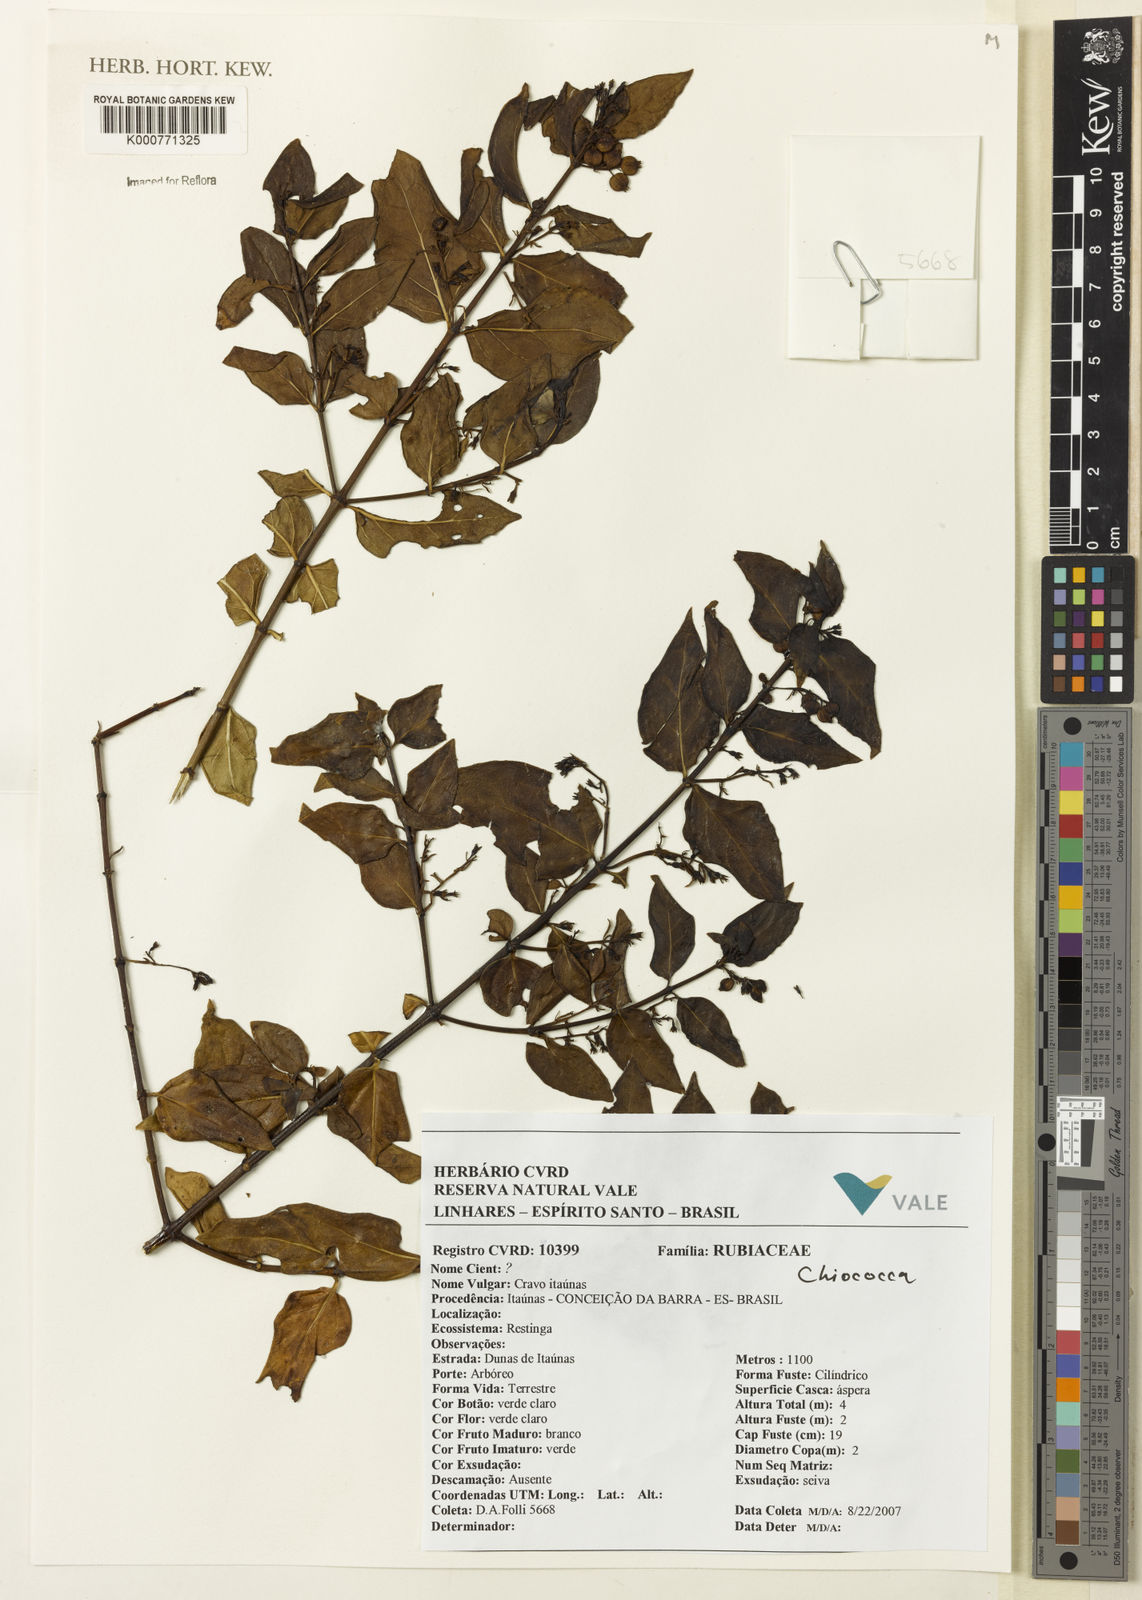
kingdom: Plantae
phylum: Tracheophyta
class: Magnoliopsida
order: Gentianales
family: Rubiaceae
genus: Chiococca
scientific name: Chiococca
